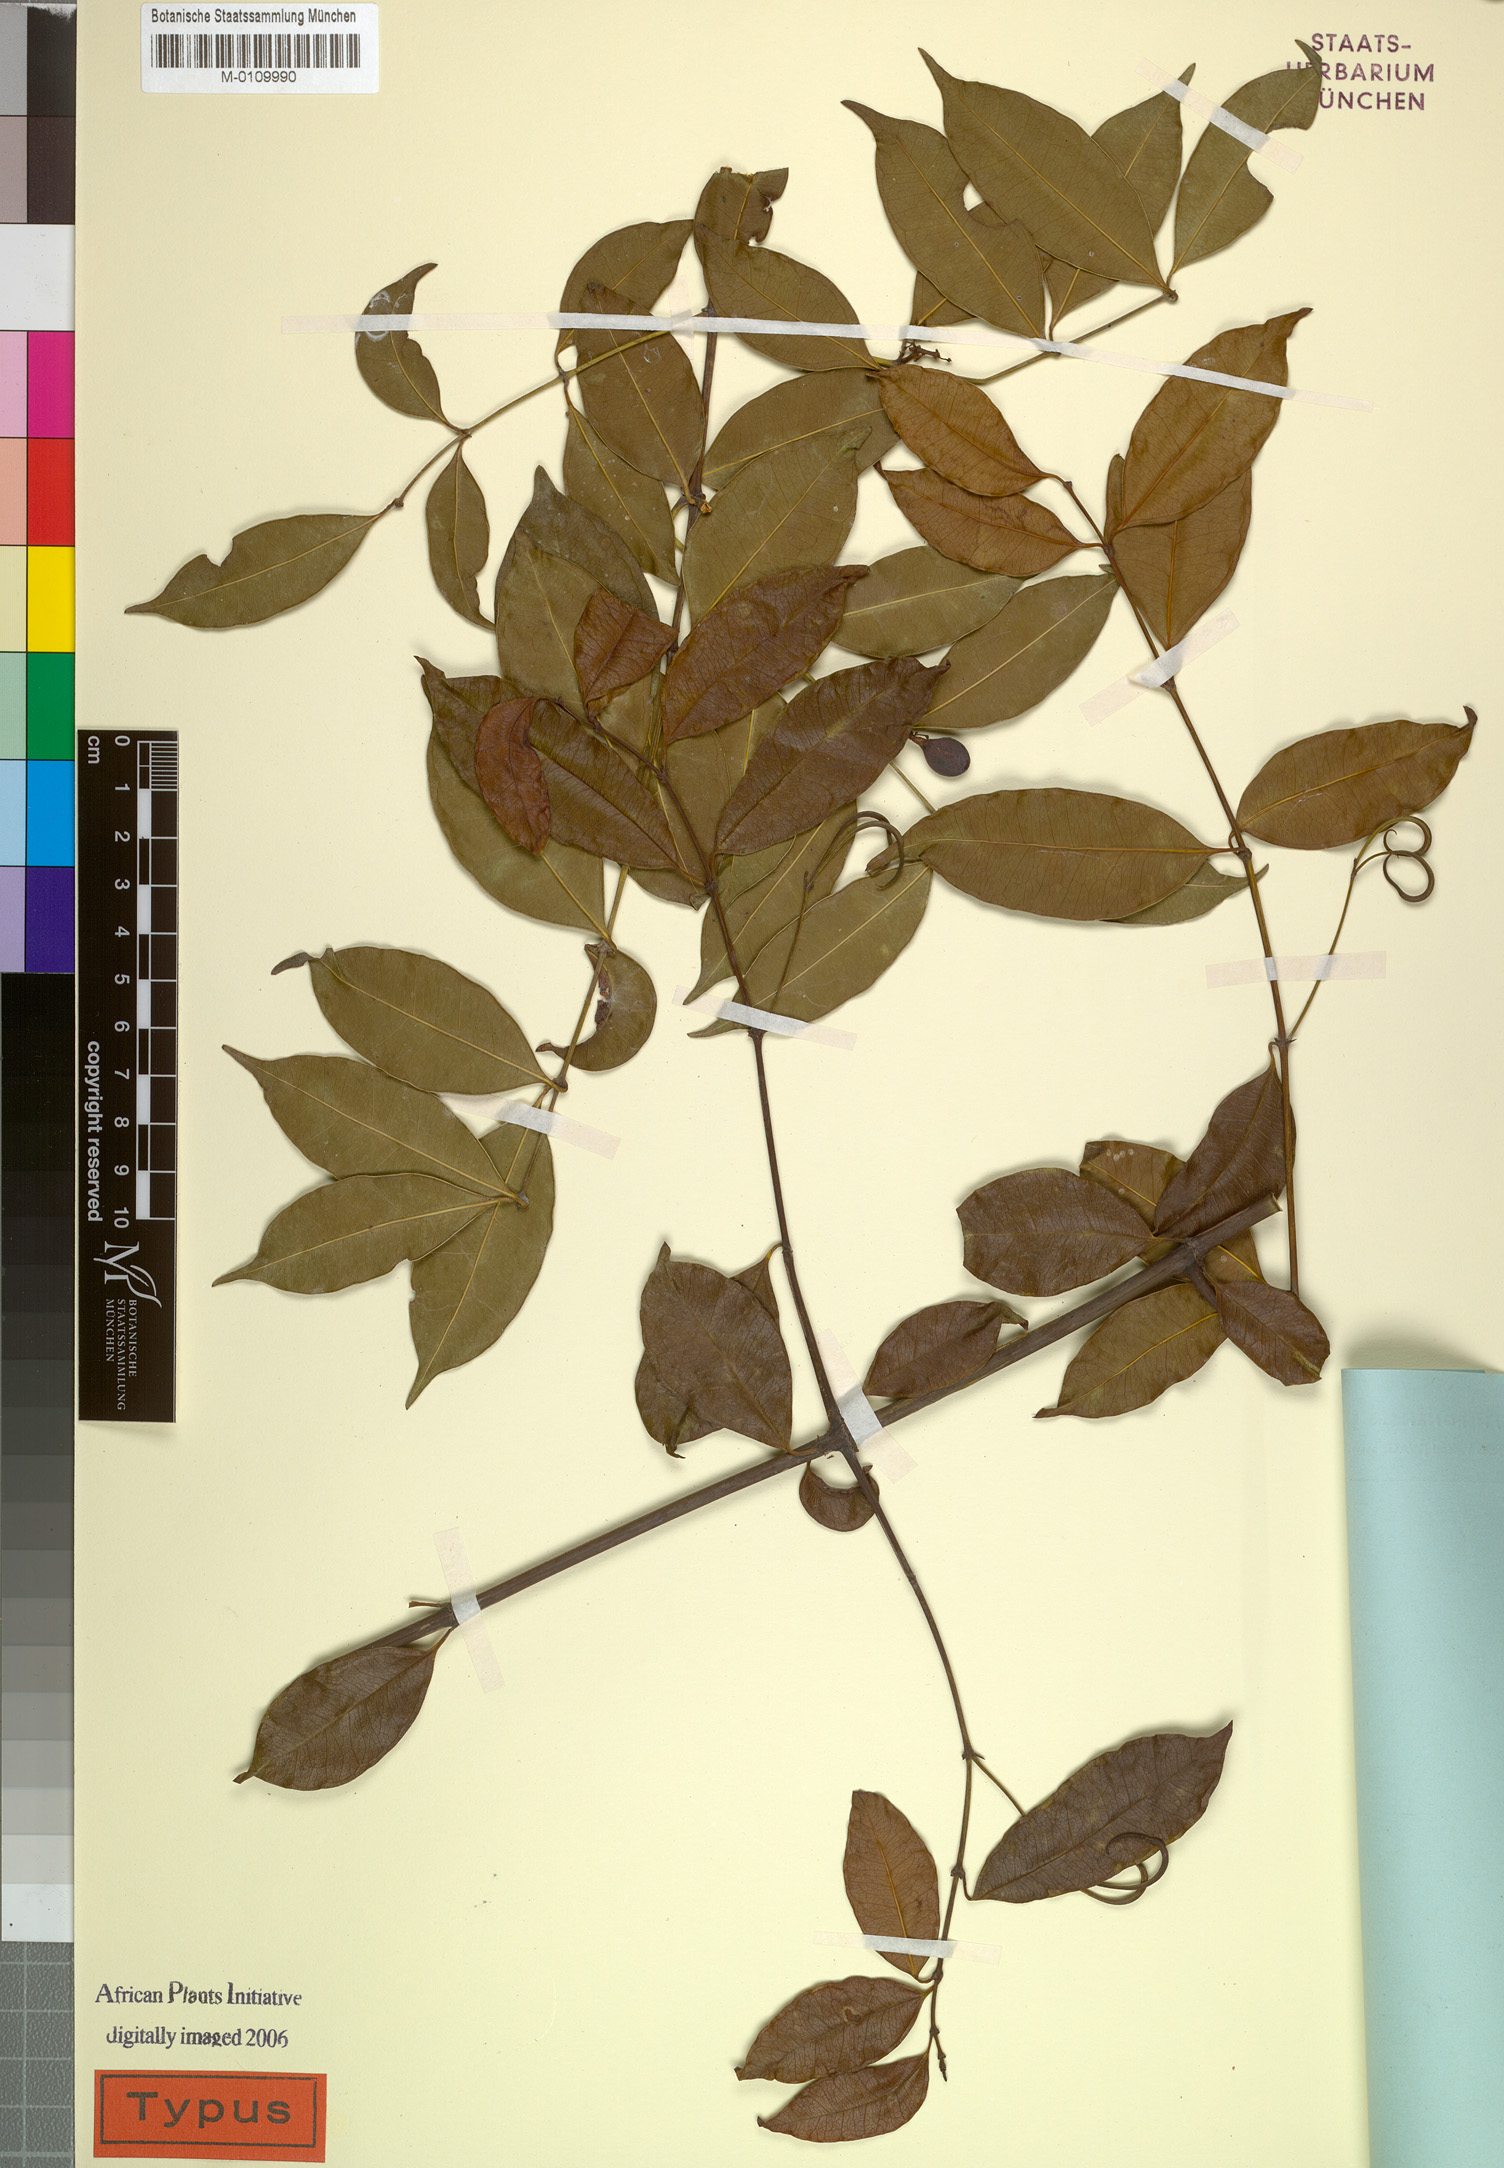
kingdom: Plantae
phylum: Tracheophyta
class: Magnoliopsida
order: Gentianales
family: Loganiaceae
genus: Strychnos
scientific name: Strychnos asterantha
